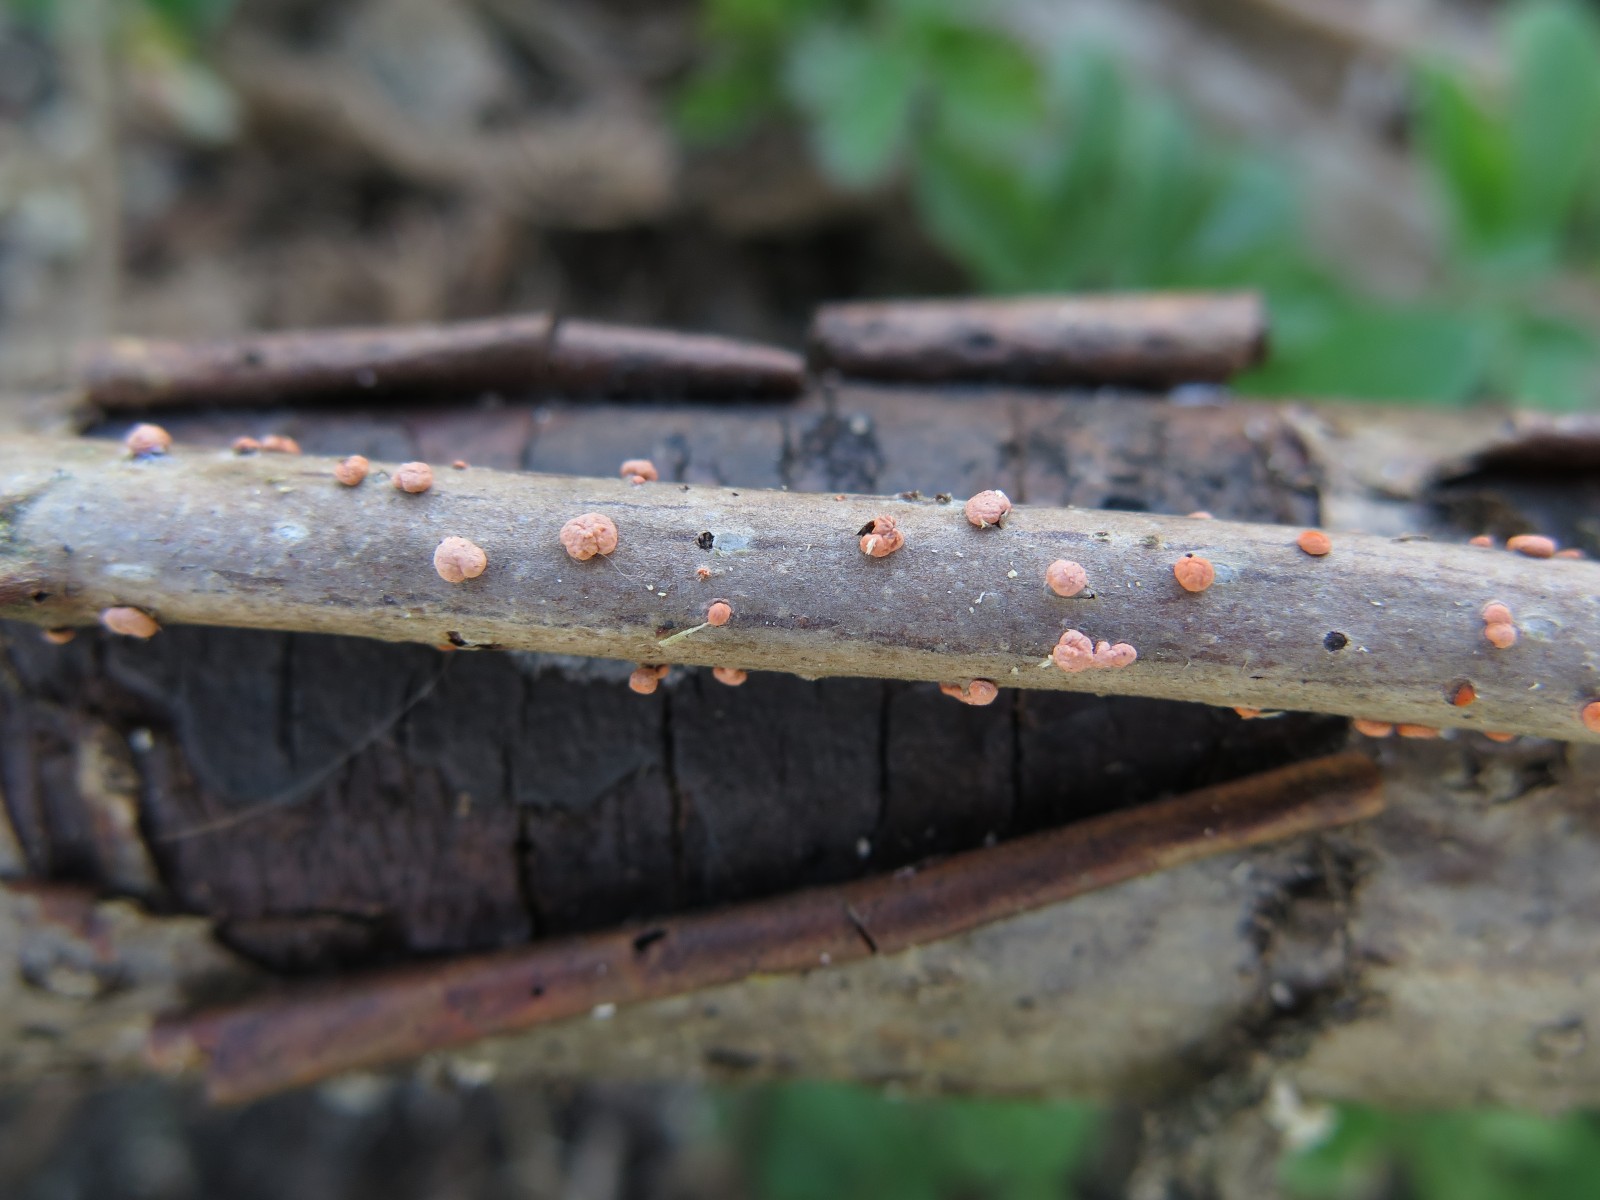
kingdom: Fungi
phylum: Ascomycota
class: Sordariomycetes
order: Hypocreales
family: Nectriaceae
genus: Nectria
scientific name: Nectria cinnabarina
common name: almindelig cinnobersvamp
